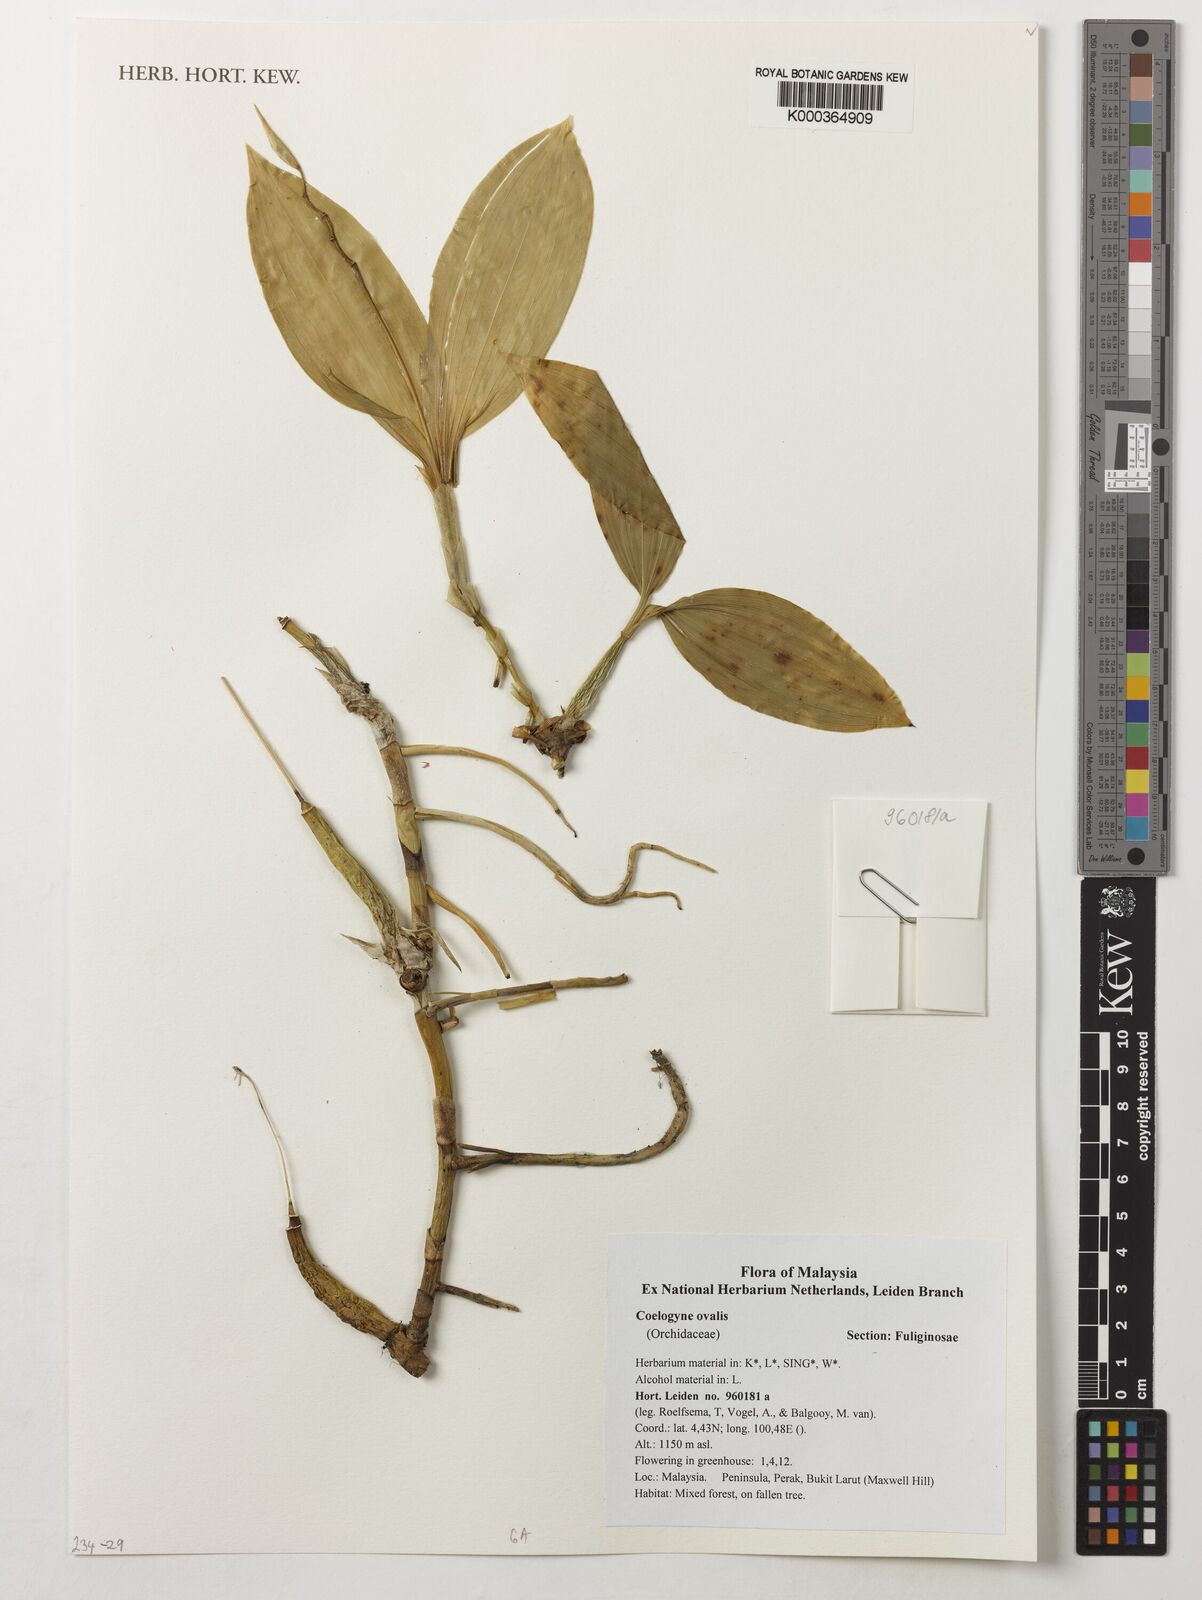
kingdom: Plantae
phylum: Tracheophyta
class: Liliopsida
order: Asparagales
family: Orchidaceae
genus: Coelogyne
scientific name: Coelogyne ovalis
